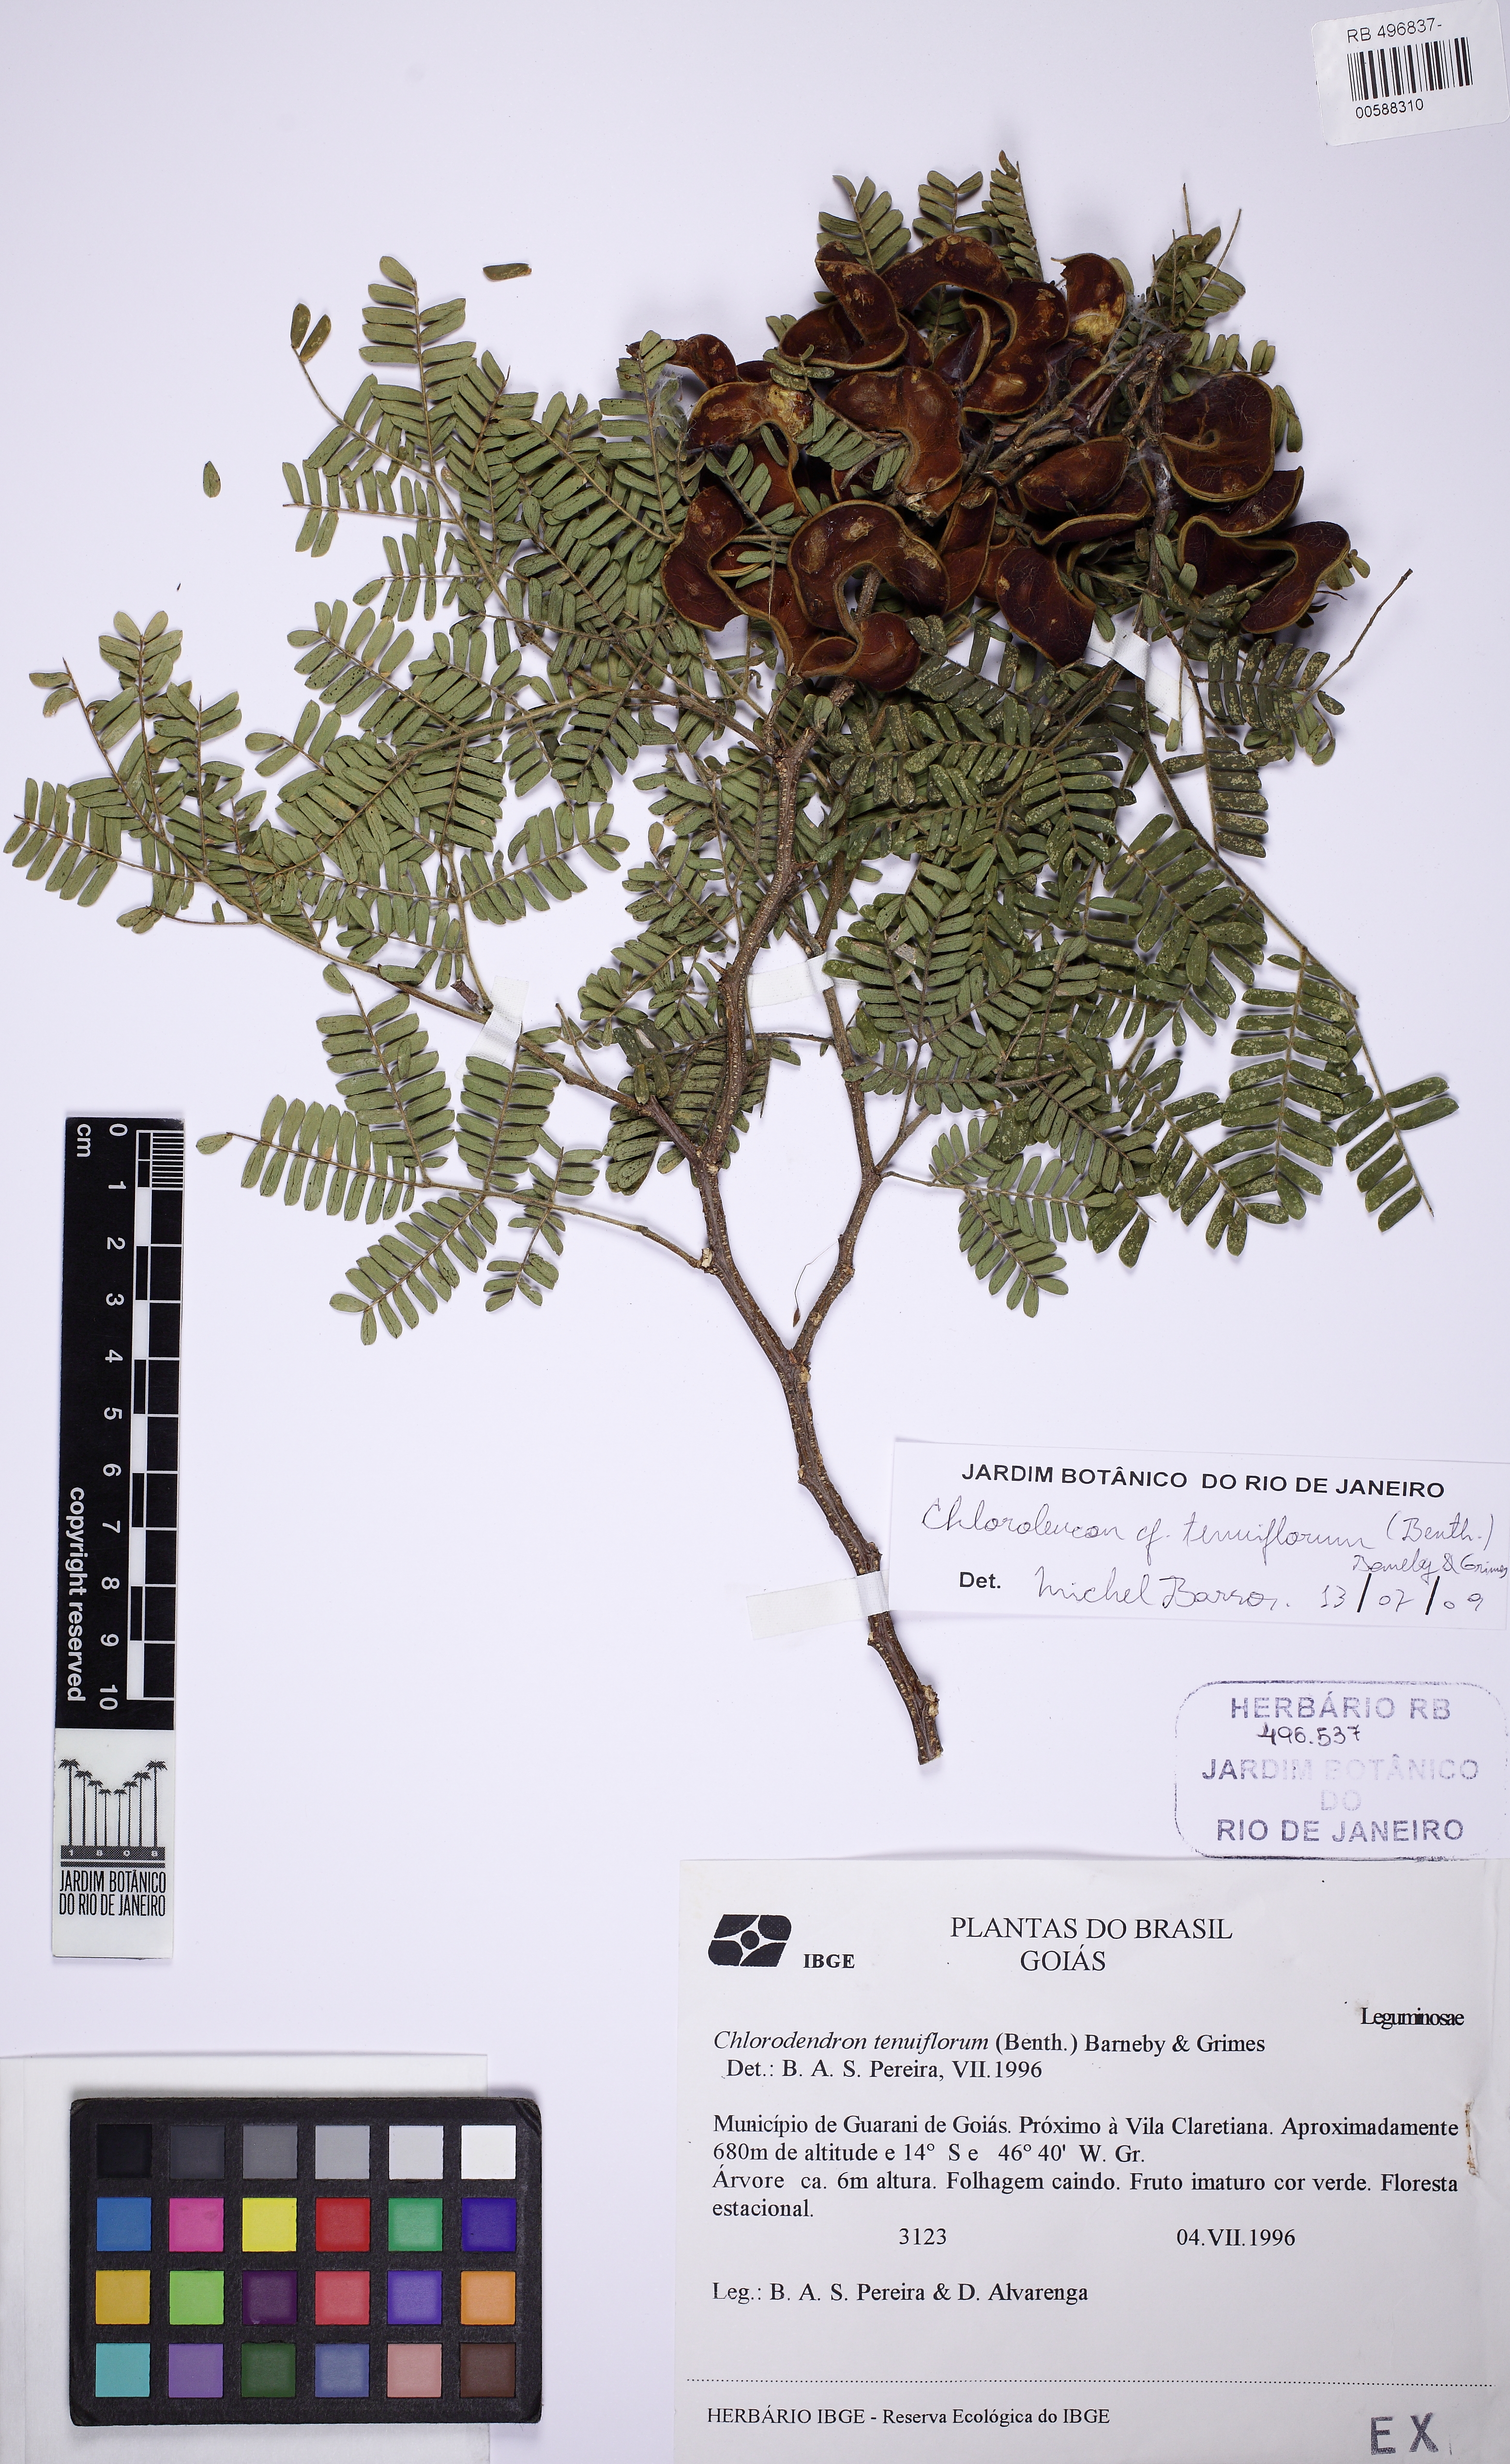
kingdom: Plantae
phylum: Tracheophyta
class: Magnoliopsida
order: Solanales
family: Solanaceae
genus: Solanum
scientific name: Solanum variabile
